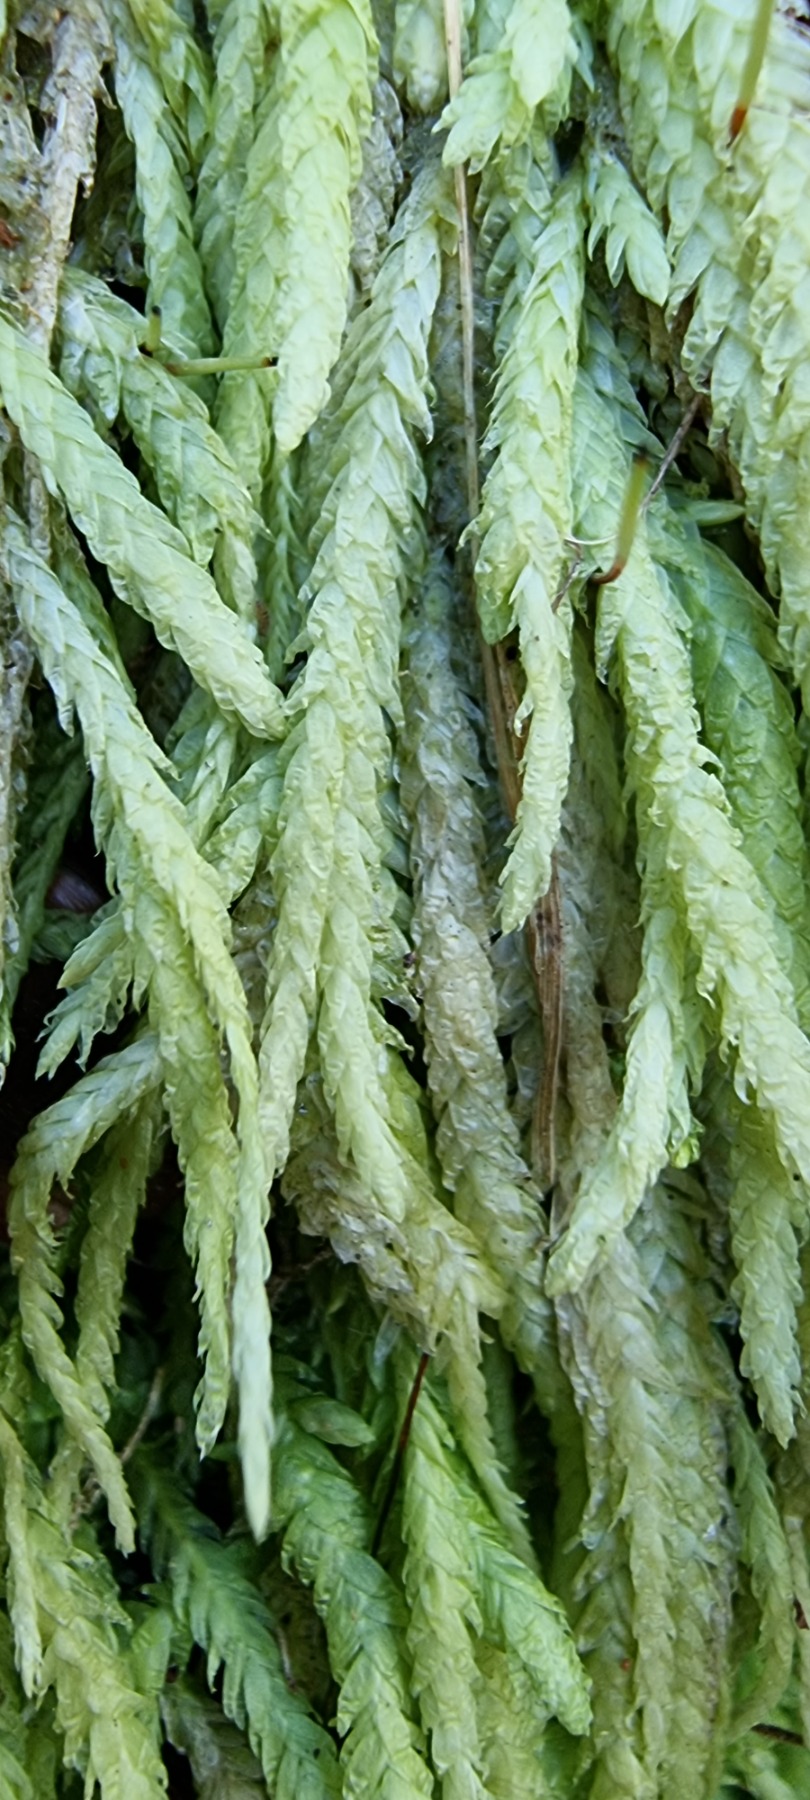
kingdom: Plantae
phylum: Bryophyta
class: Bryopsida
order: Hypnales
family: Plagiotheciaceae
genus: Plagiothecium
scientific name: Plagiothecium undulatum
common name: Bølget tæppemos
